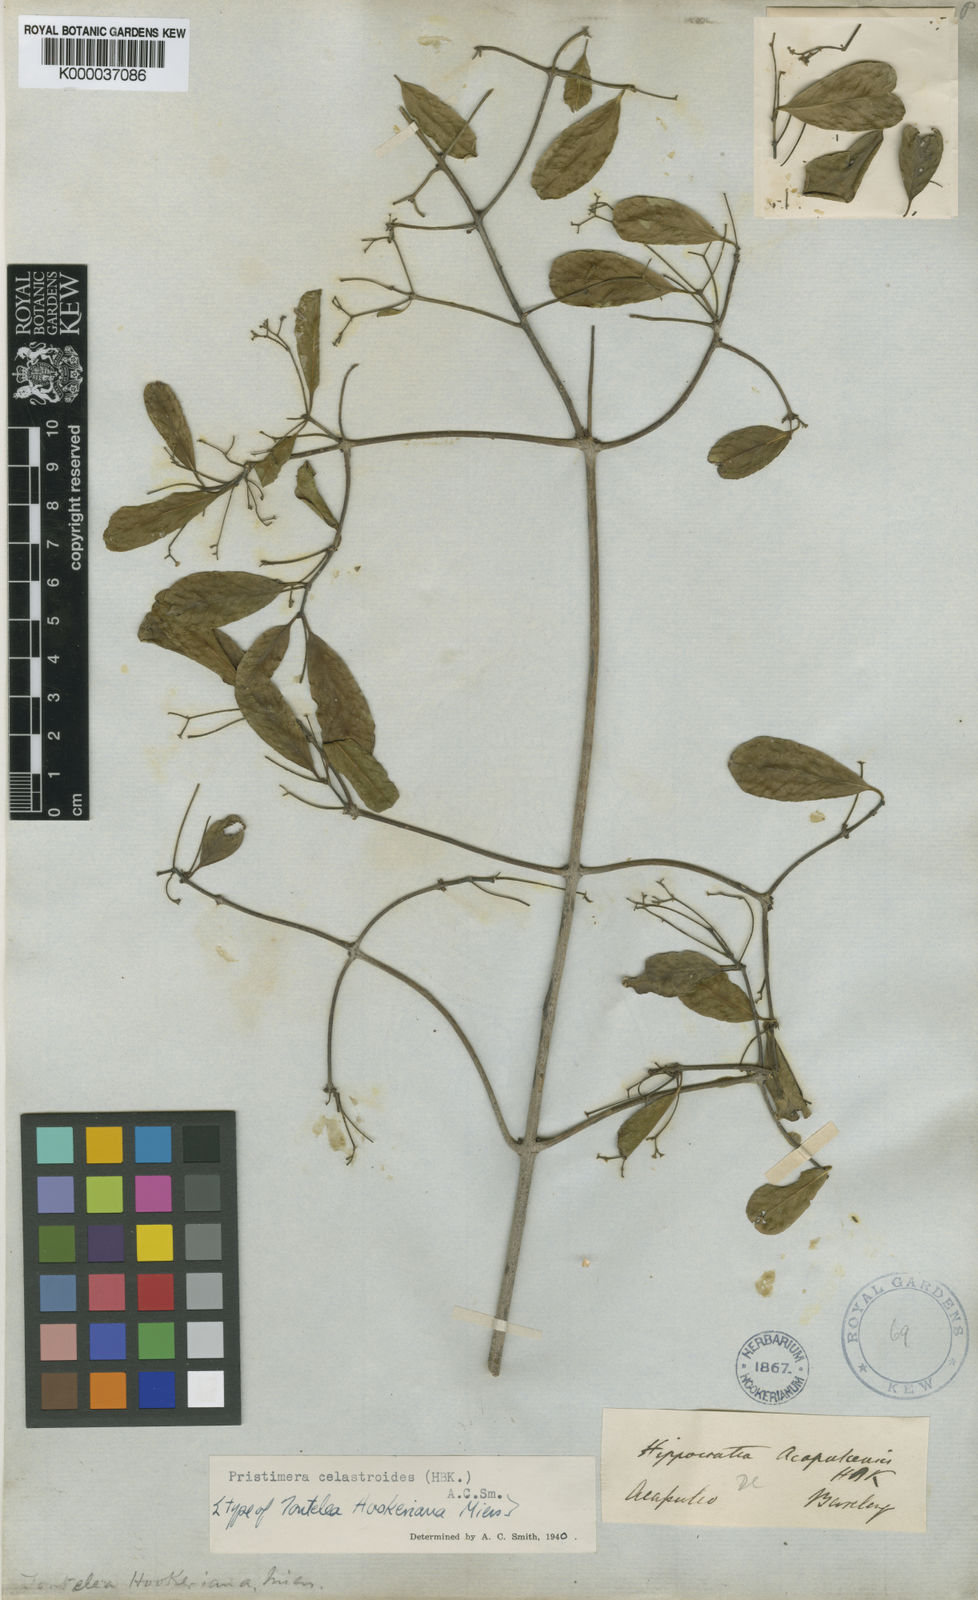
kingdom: Plantae
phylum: Tracheophyta
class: Magnoliopsida
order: Celastrales
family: Celastraceae
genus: Pristimera
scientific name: Pristimera
